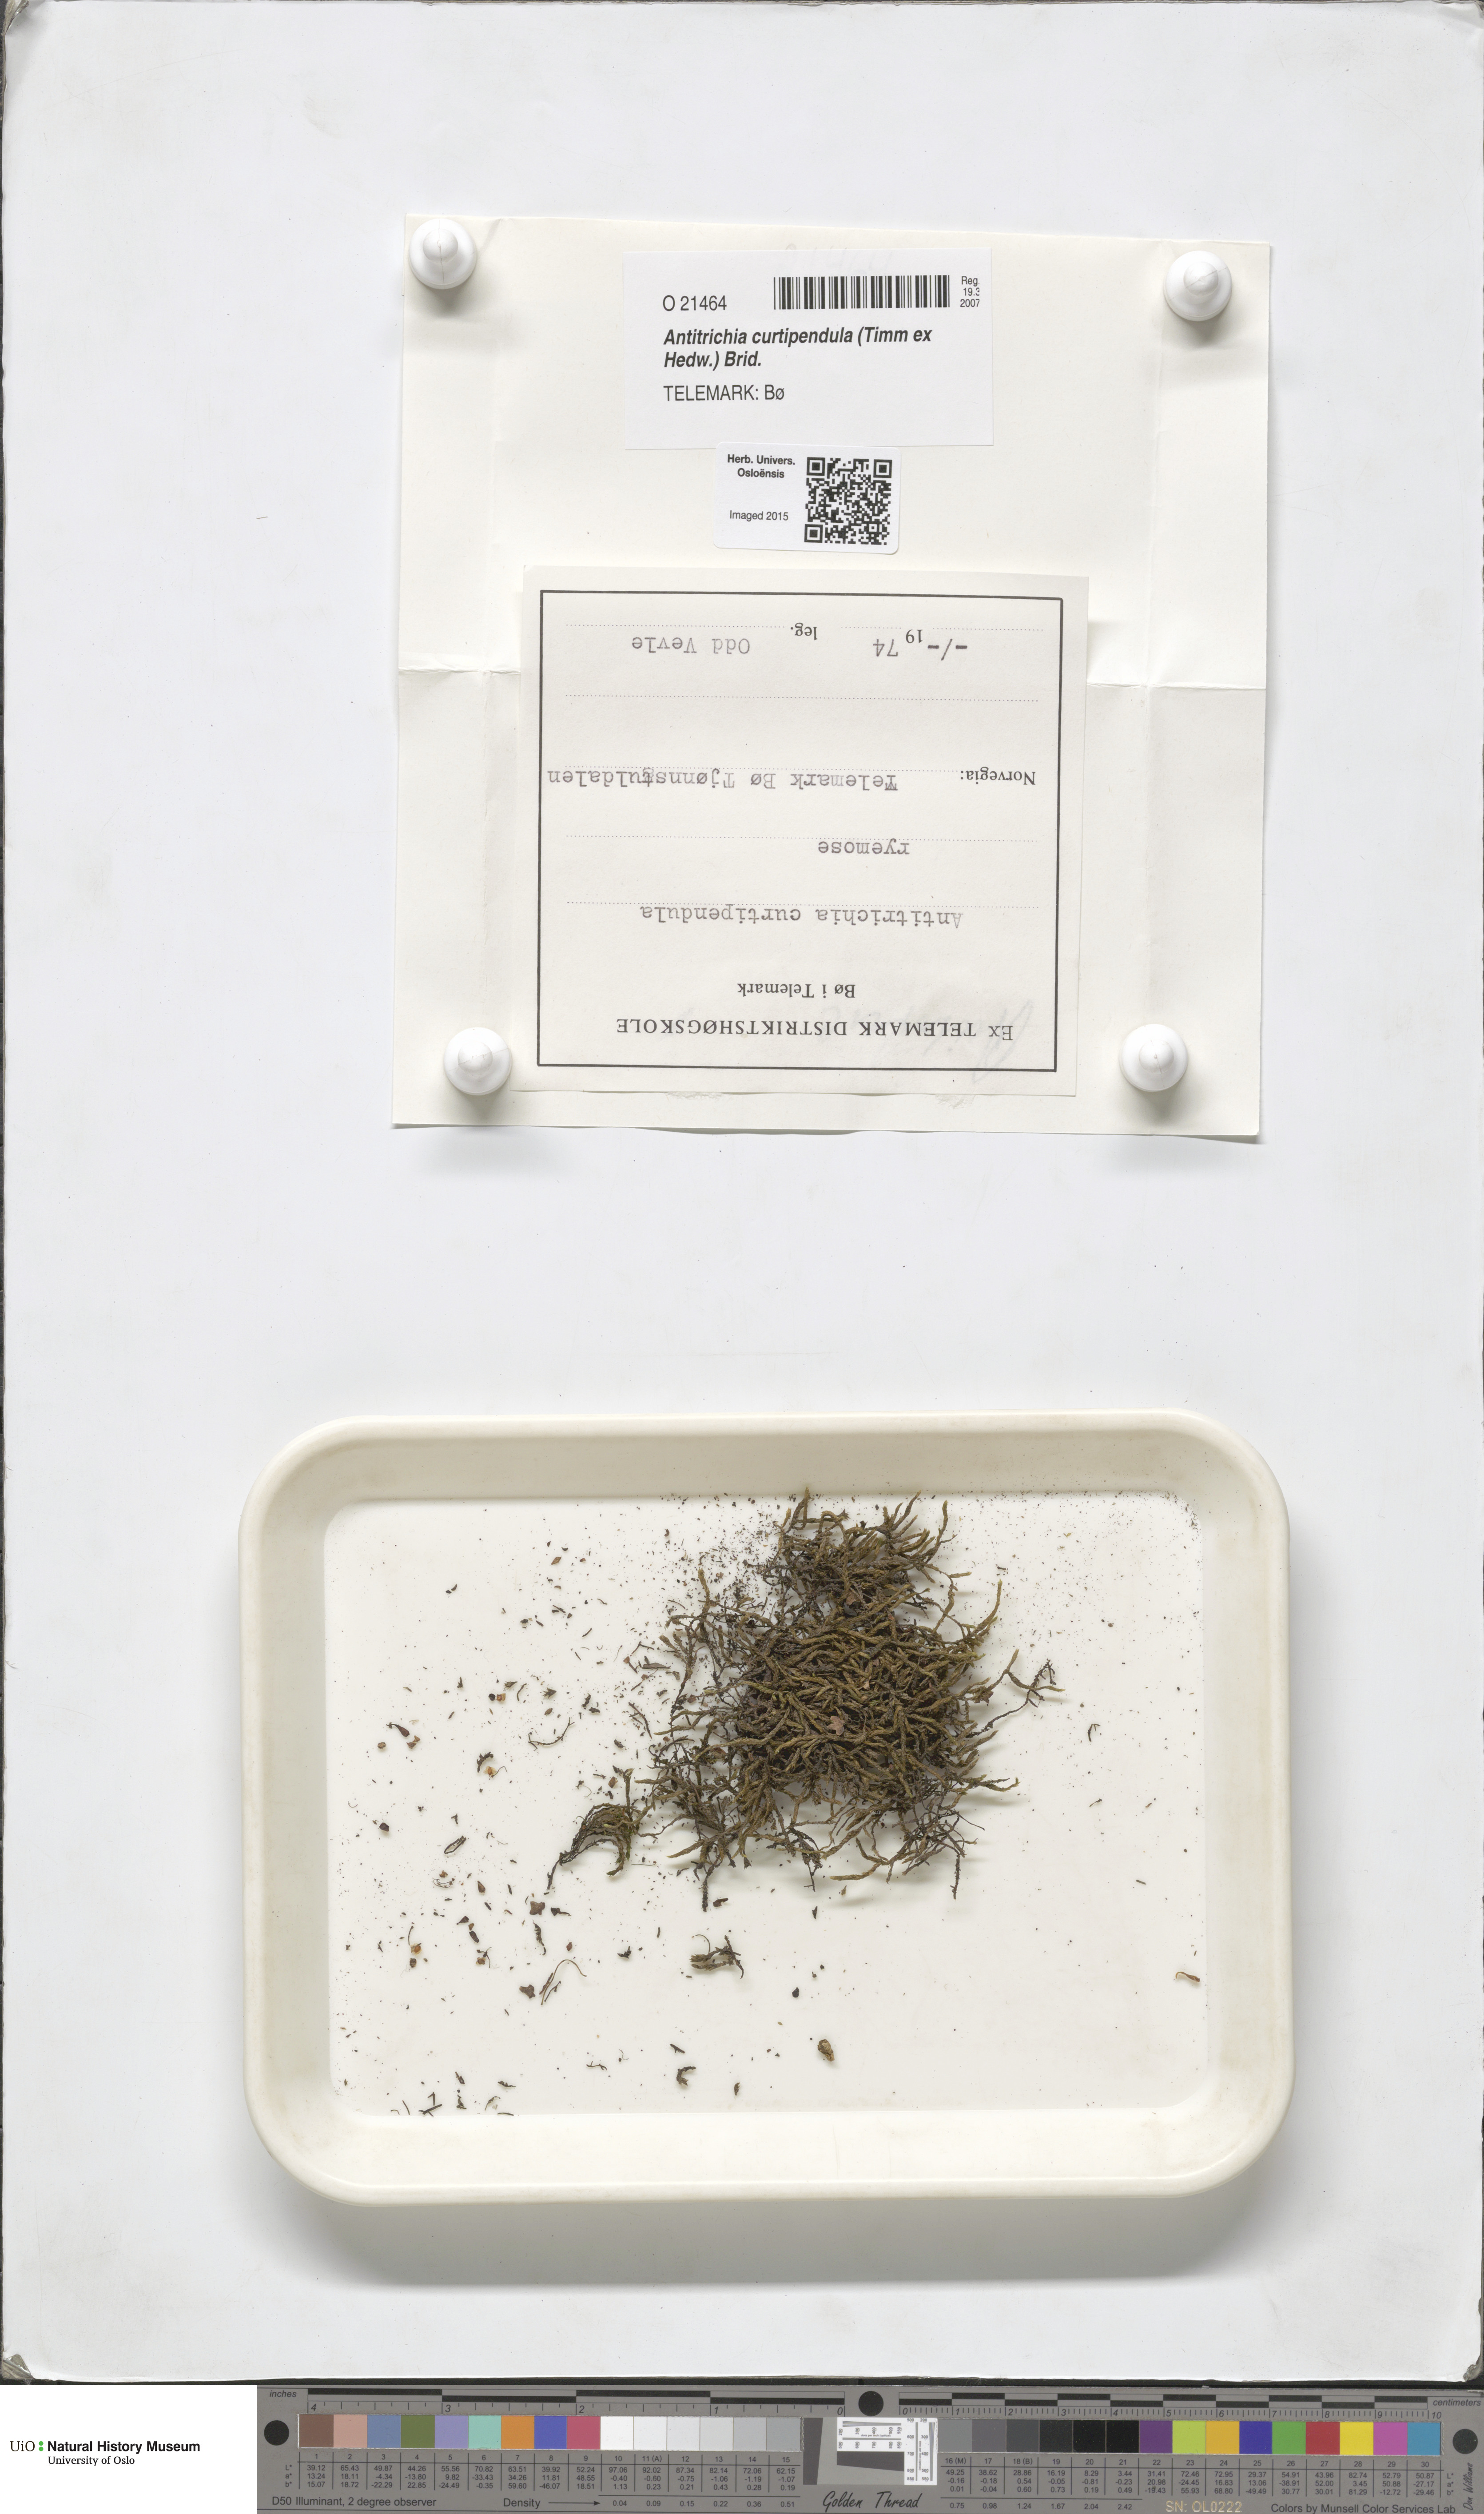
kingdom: Plantae
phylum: Bryophyta
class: Bryopsida
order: Hypnales
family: Antitrichiaceae
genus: Antitrichia
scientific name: Antitrichia curtipendula
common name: Pendulous wing-moss
